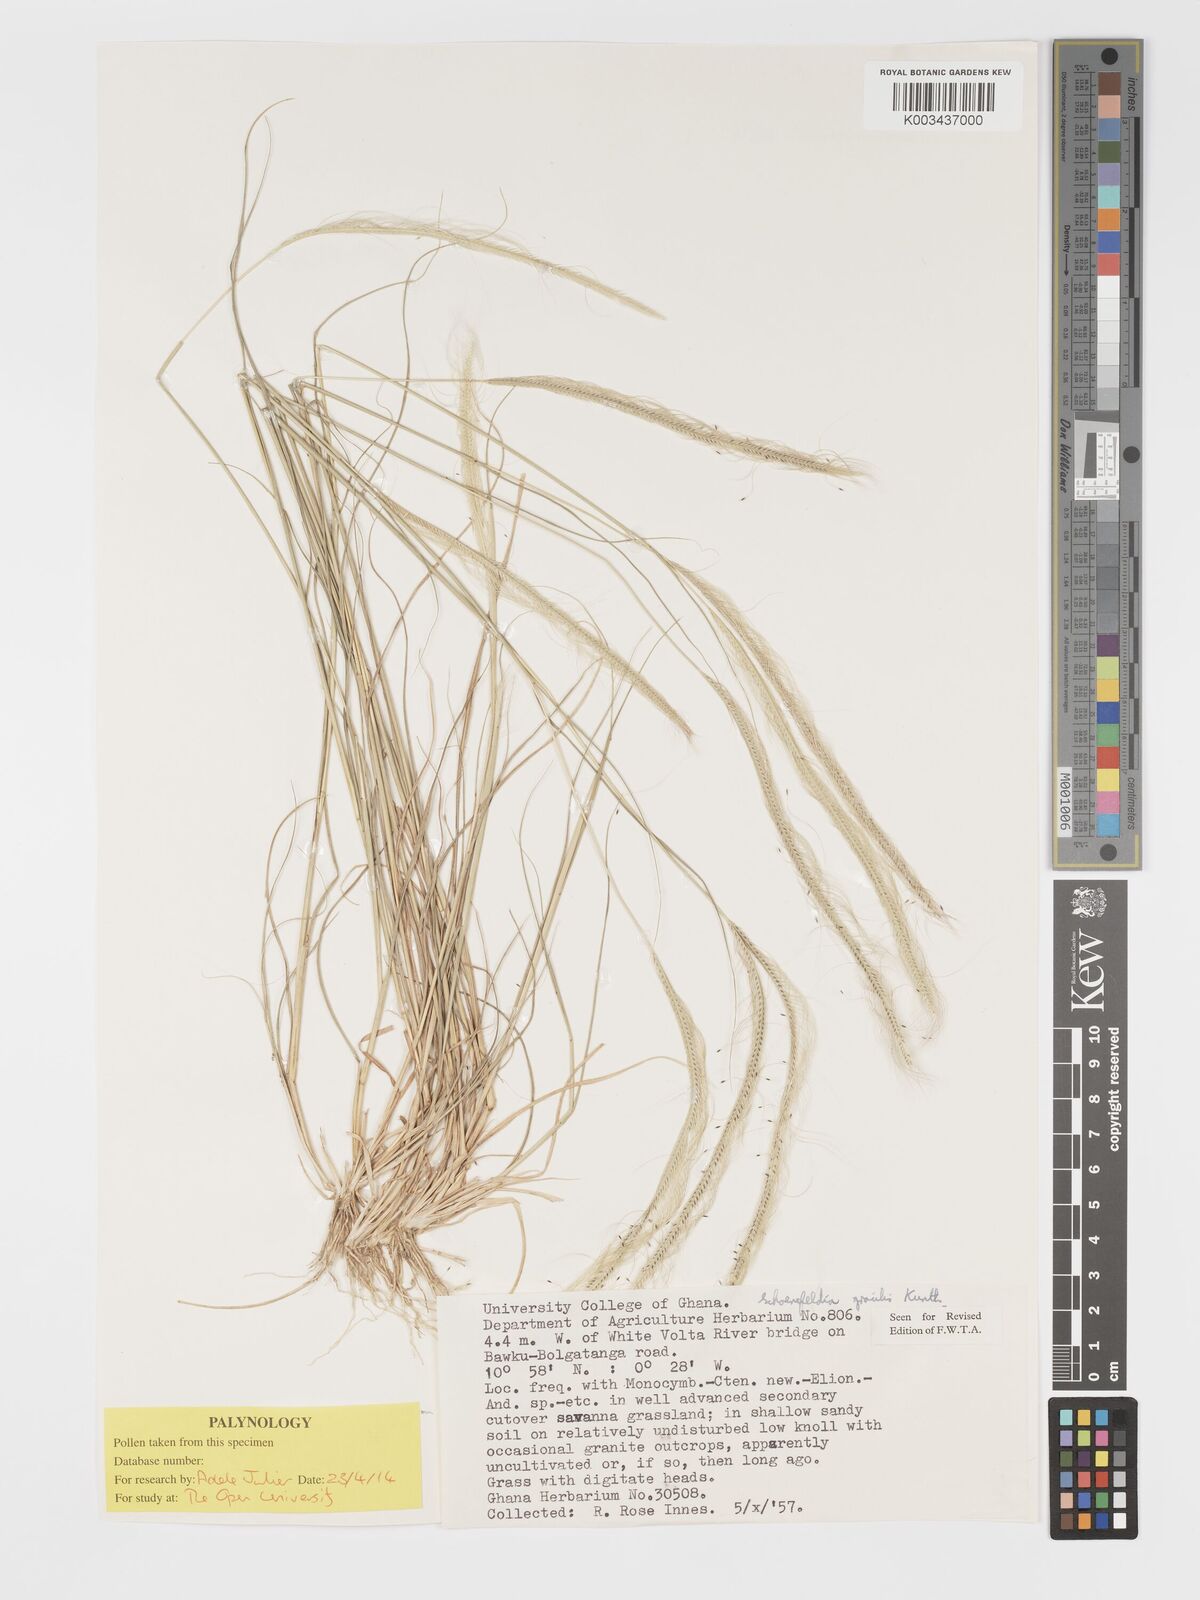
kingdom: Plantae
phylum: Tracheophyta
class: Liliopsida
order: Poales
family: Poaceae
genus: Schoenefeldia
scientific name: Schoenefeldia gracilis
